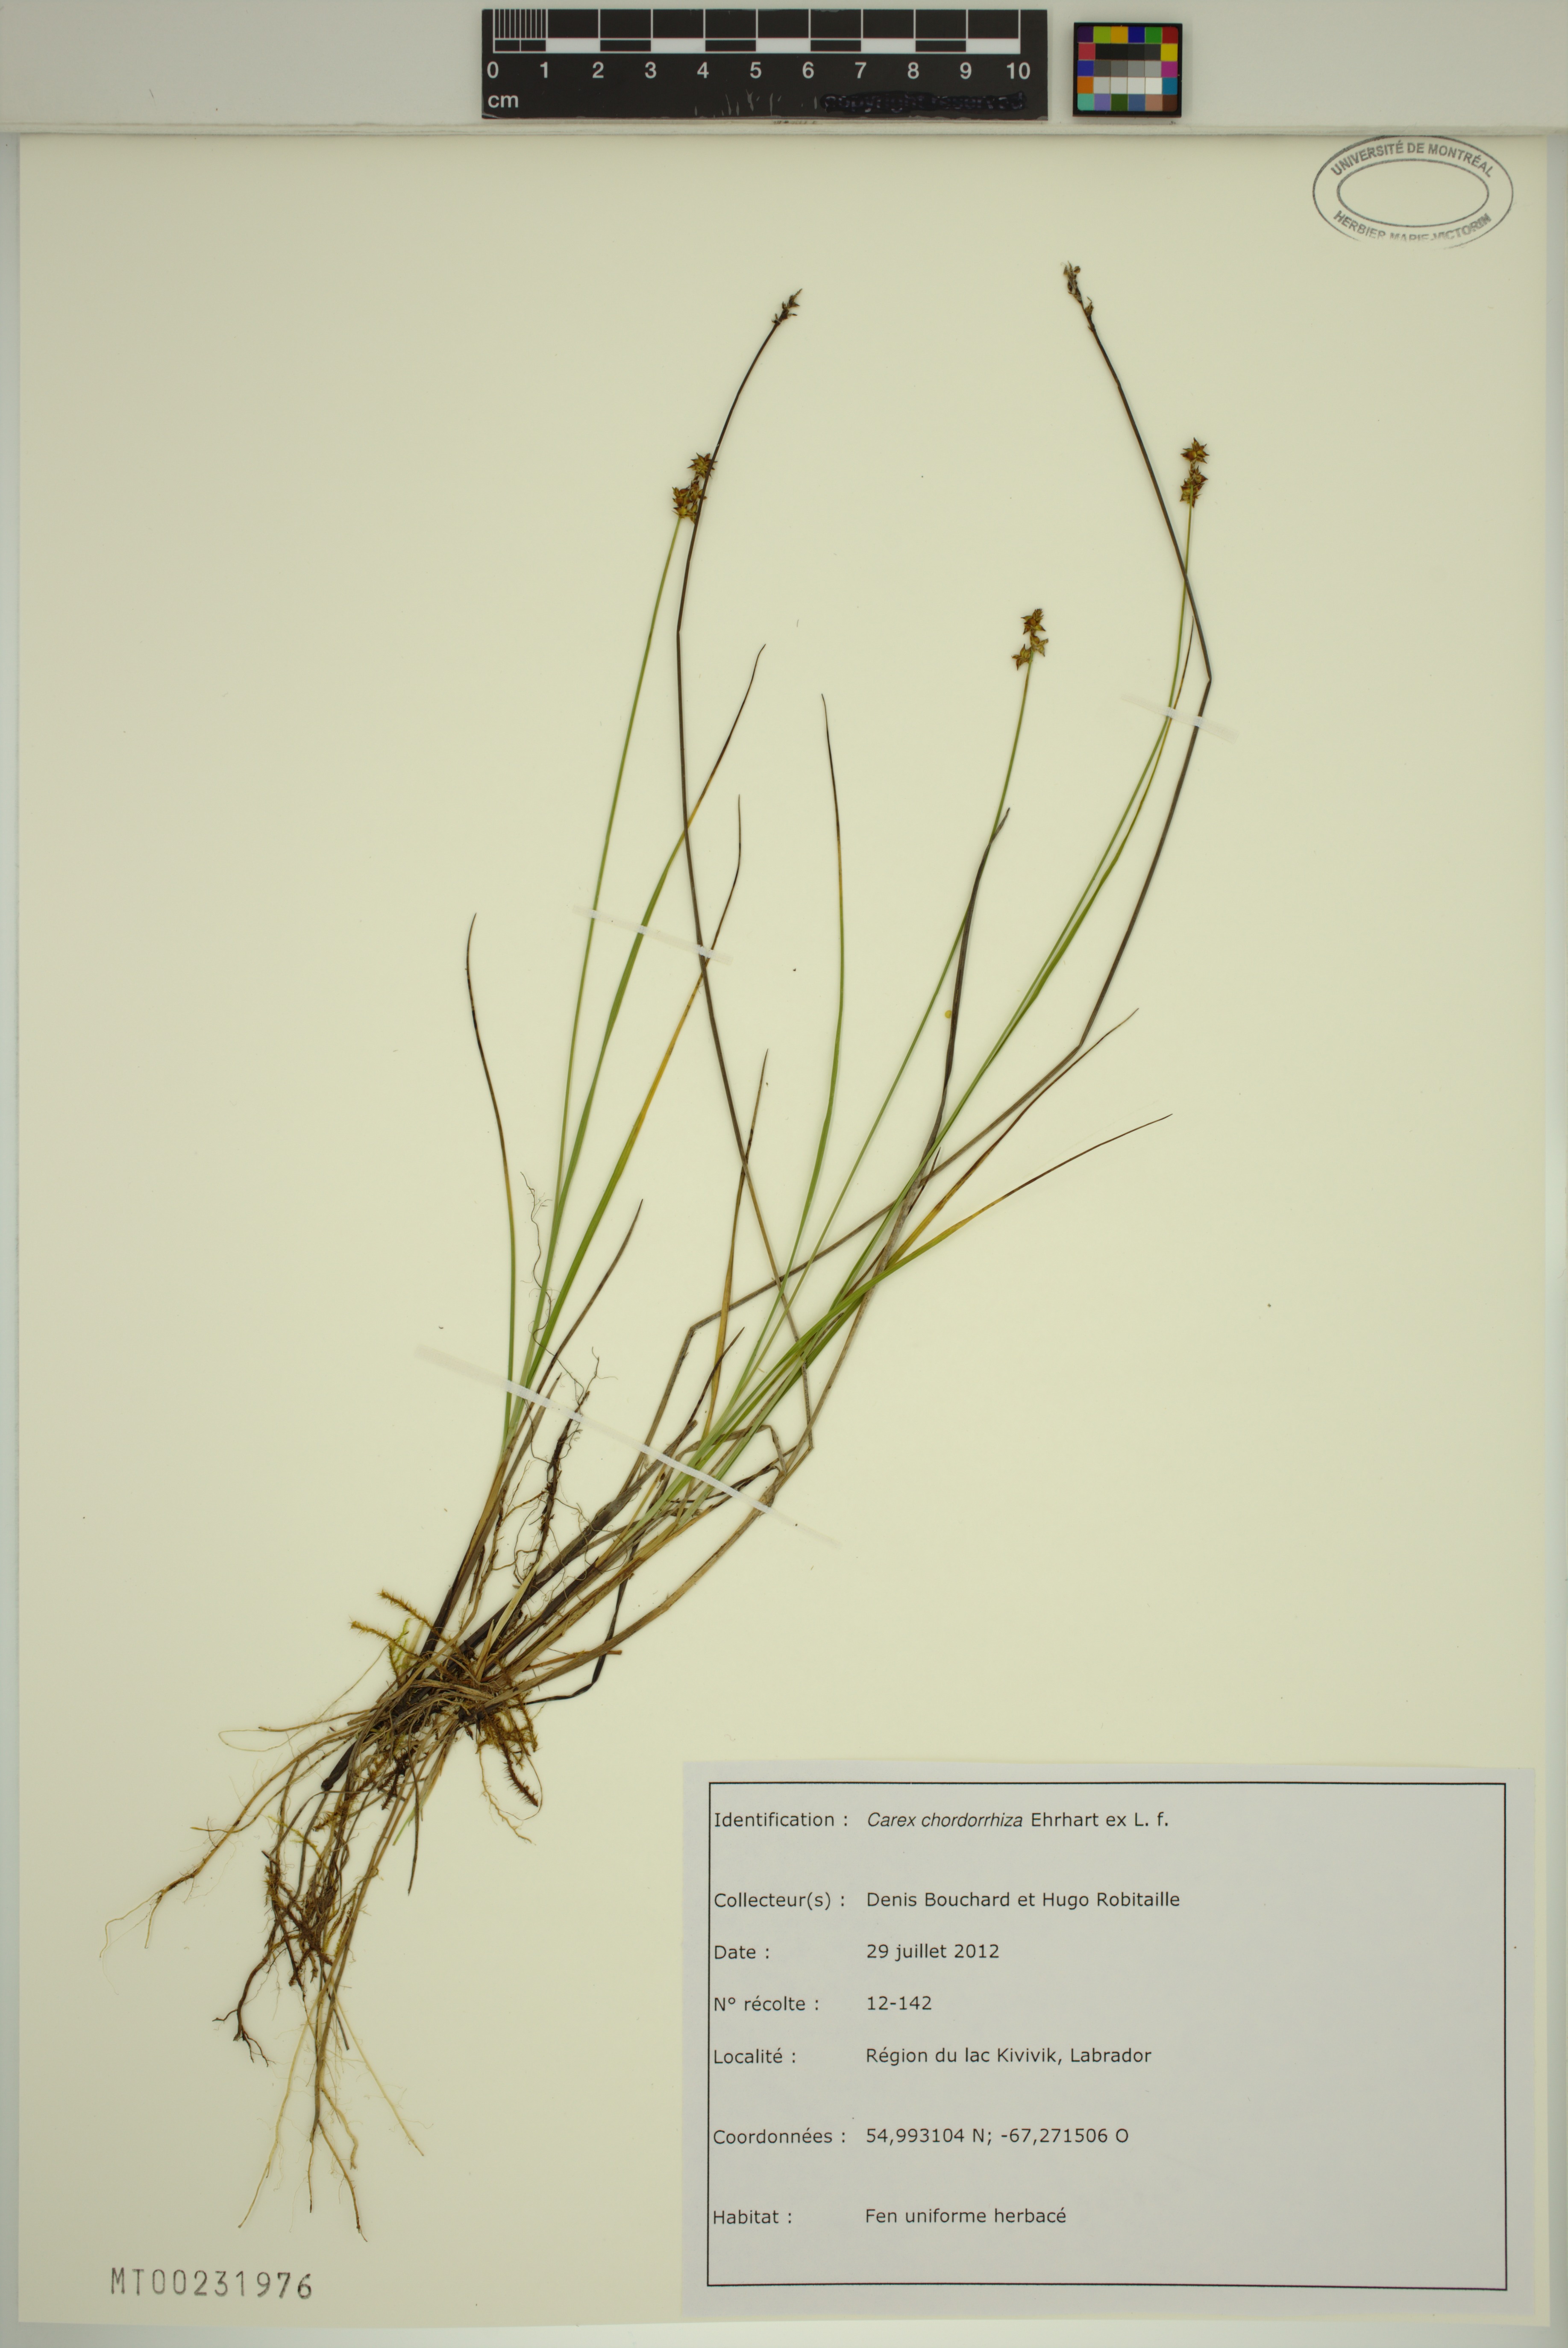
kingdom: Plantae
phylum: Tracheophyta
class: Liliopsida
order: Poales
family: Cyperaceae
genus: Carex
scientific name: Carex chordorrhiza
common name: String sedge
